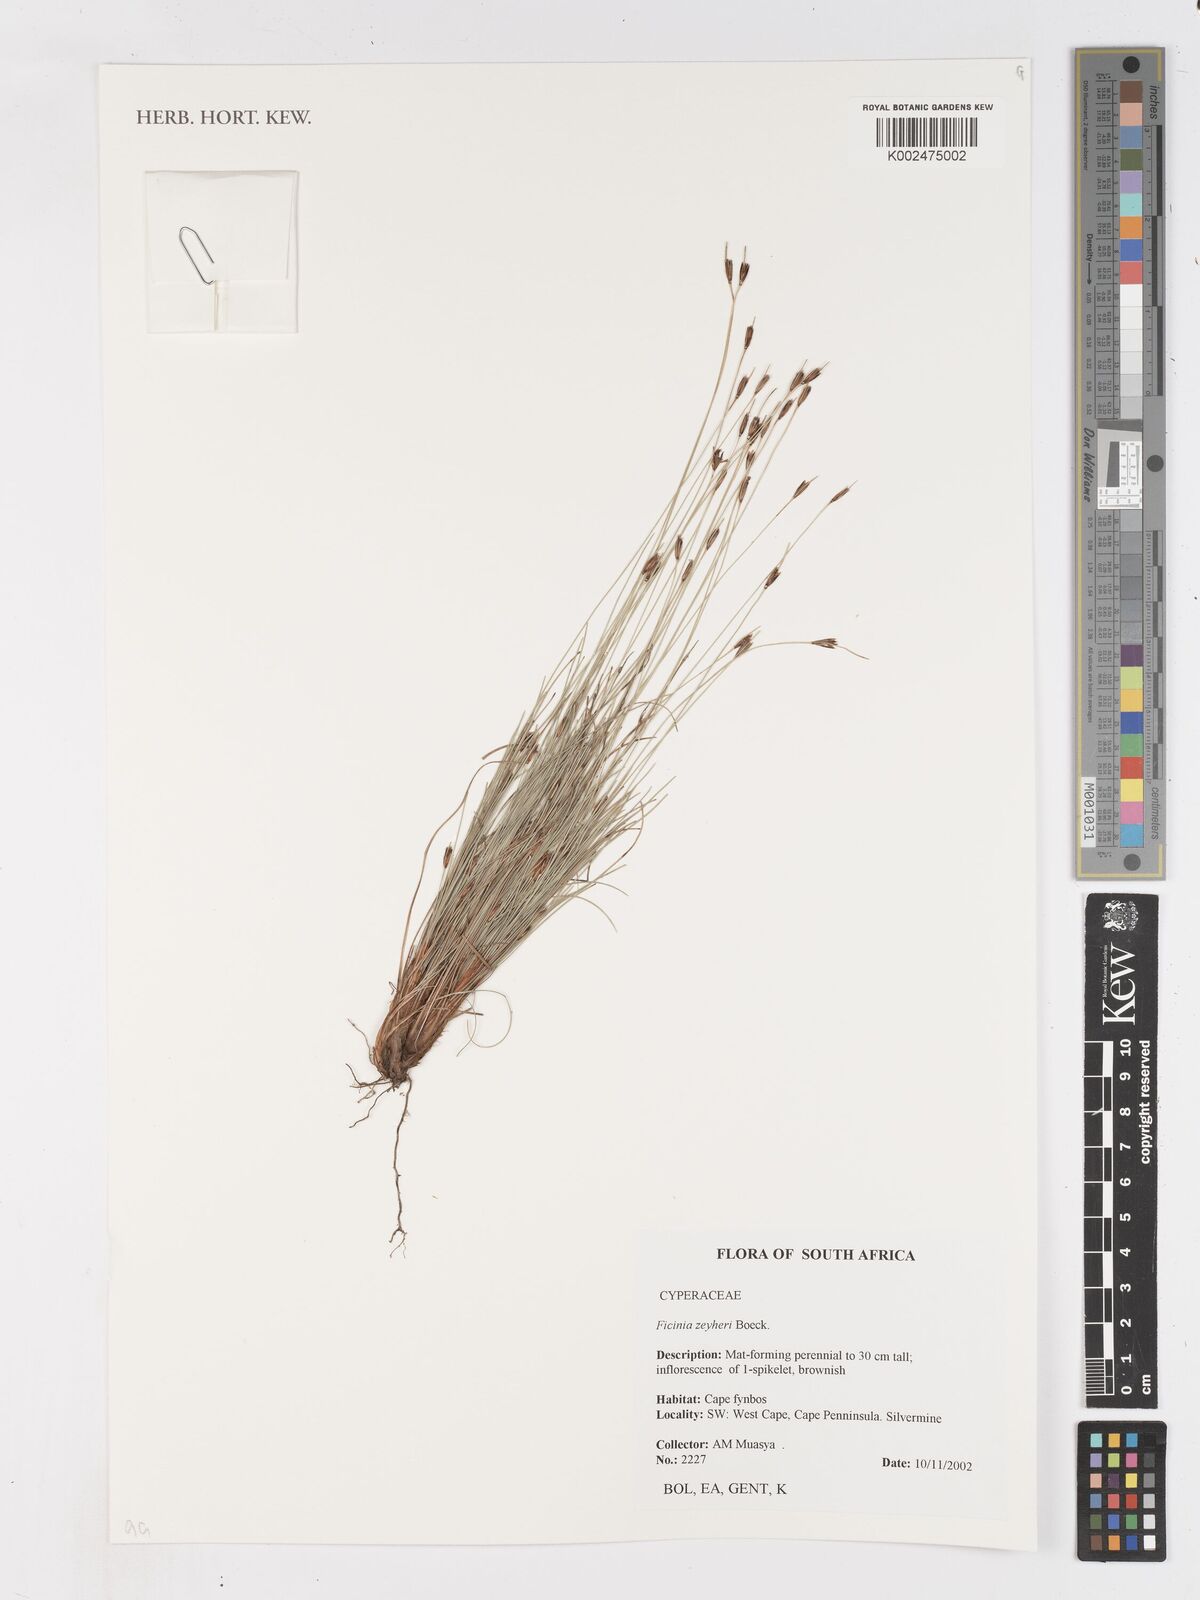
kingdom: Plantae
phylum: Tracheophyta
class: Liliopsida
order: Poales
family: Cyperaceae
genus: Ficinia
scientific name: Ficinia zeyheri
